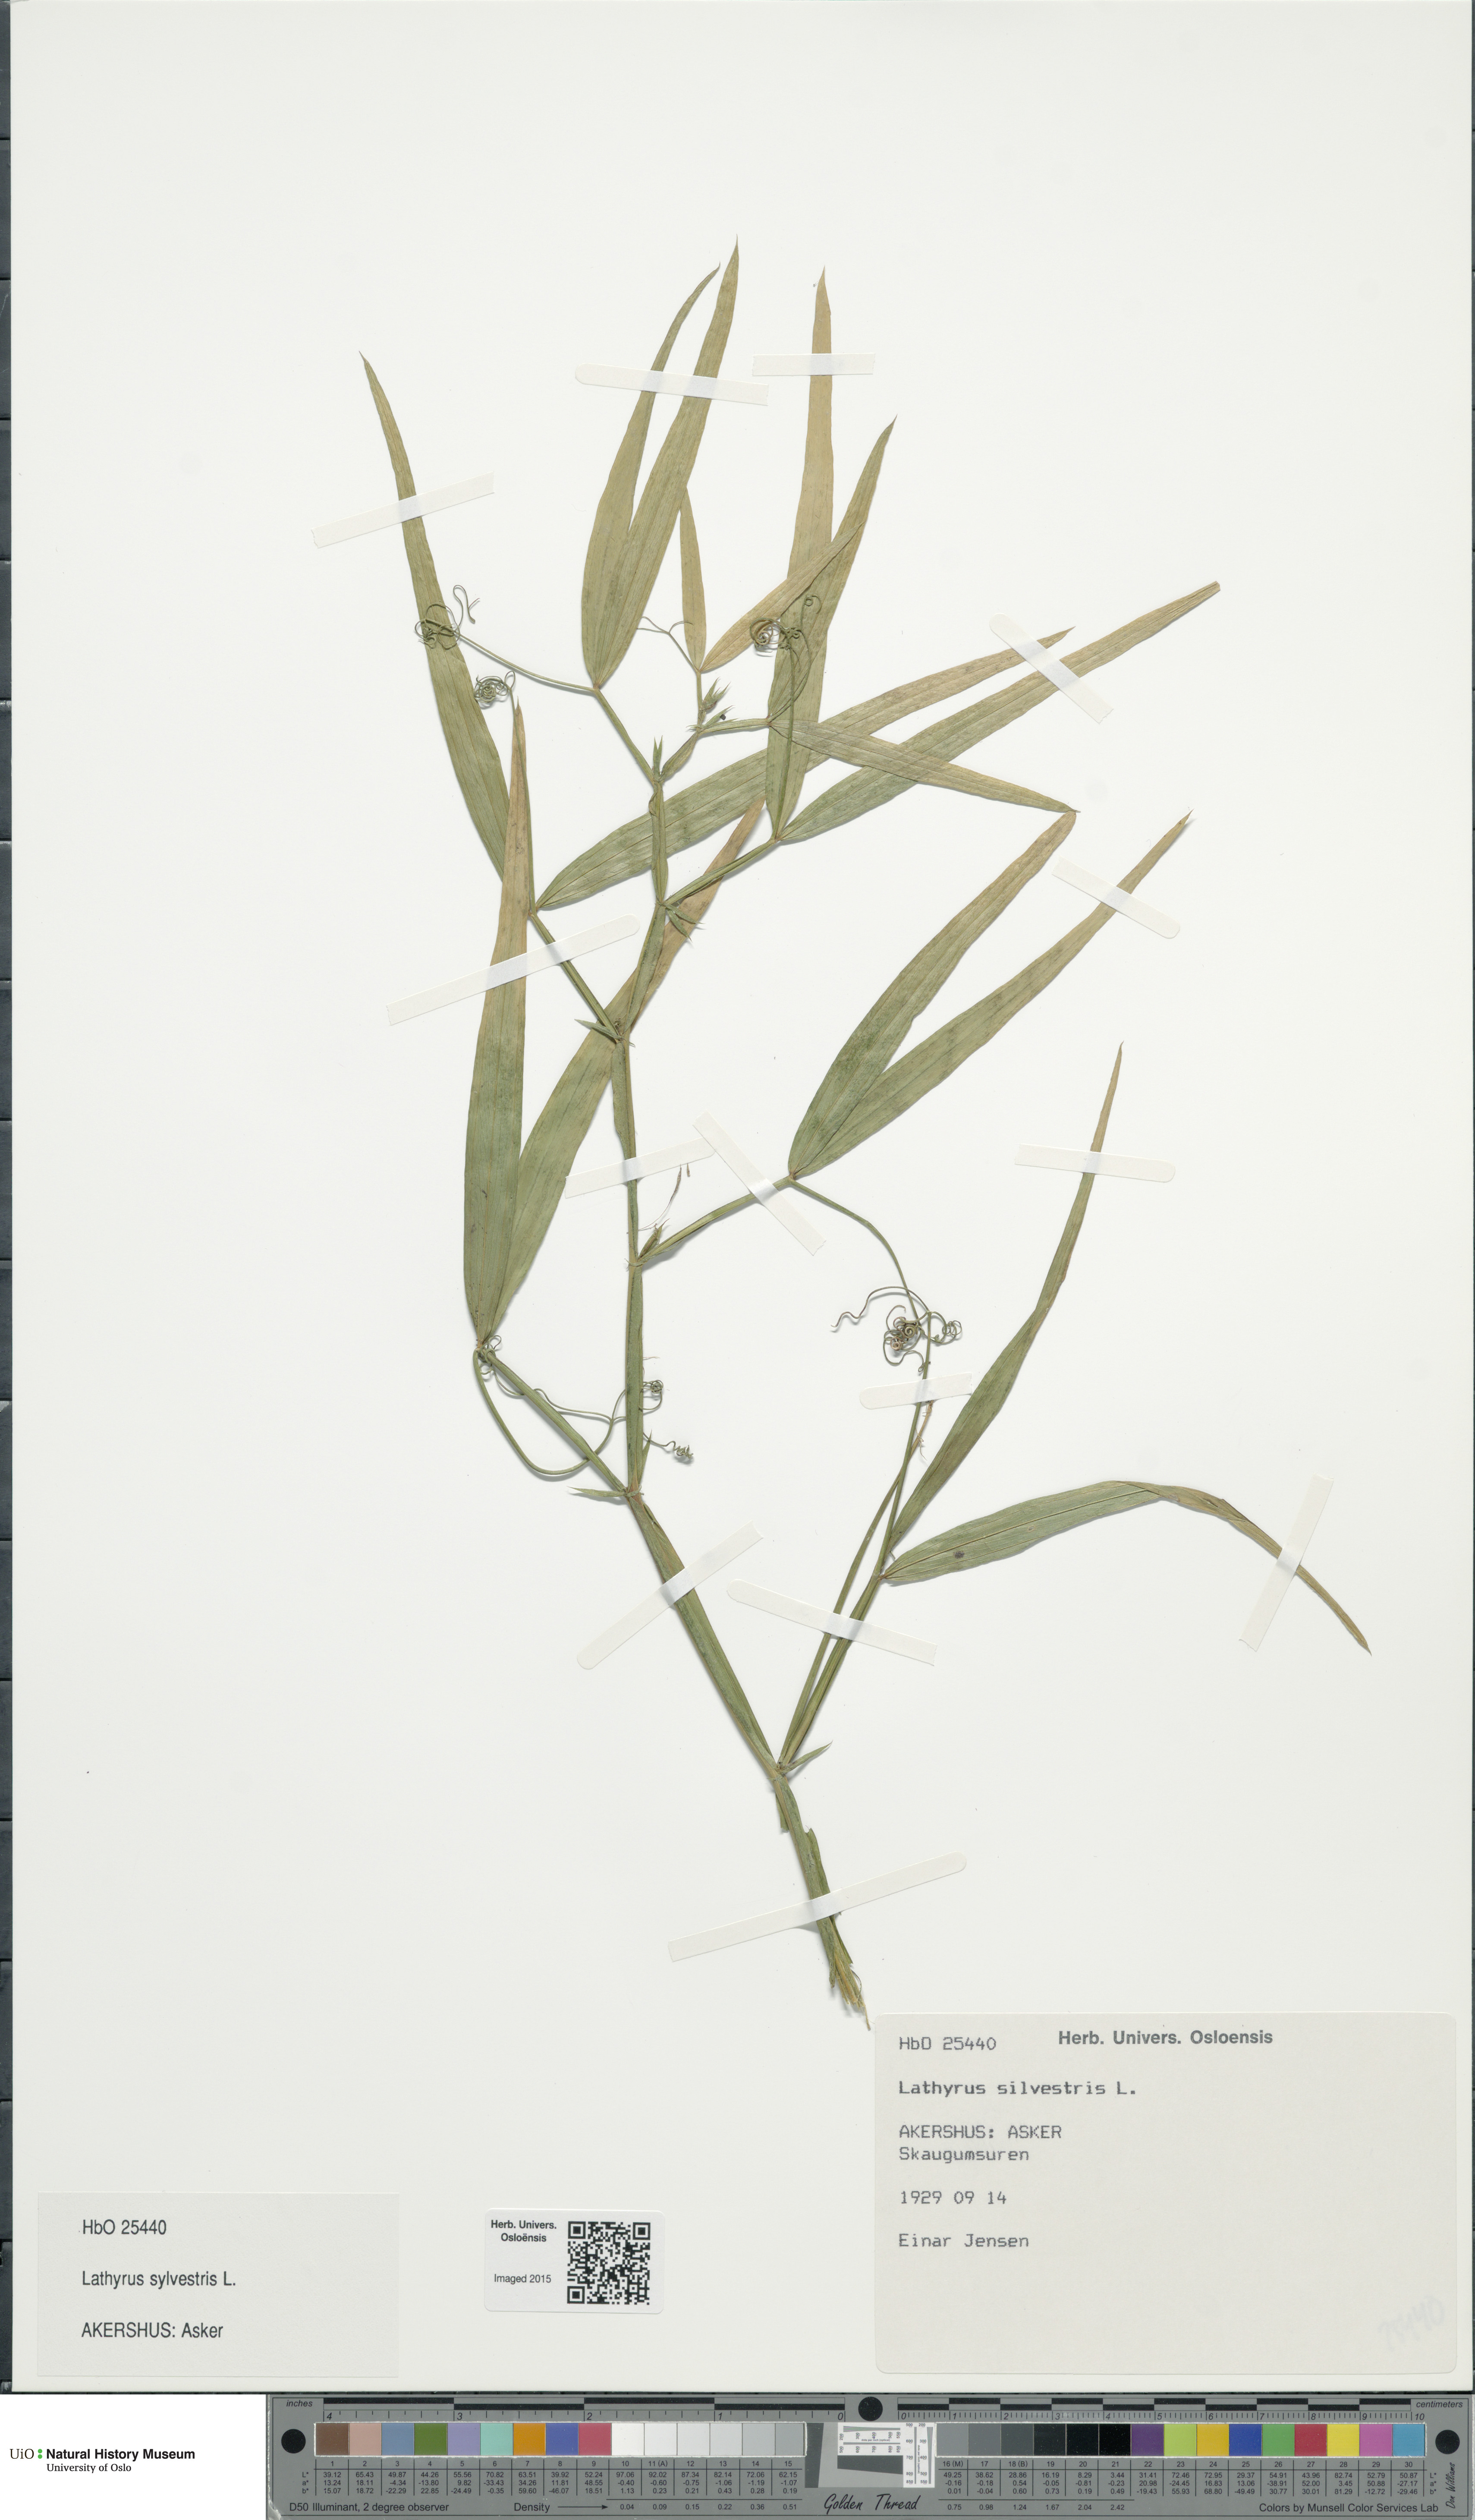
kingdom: Plantae
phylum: Tracheophyta
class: Magnoliopsida
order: Fabales
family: Fabaceae
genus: Lathyrus
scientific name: Lathyrus sylvestris
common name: Flat pea
